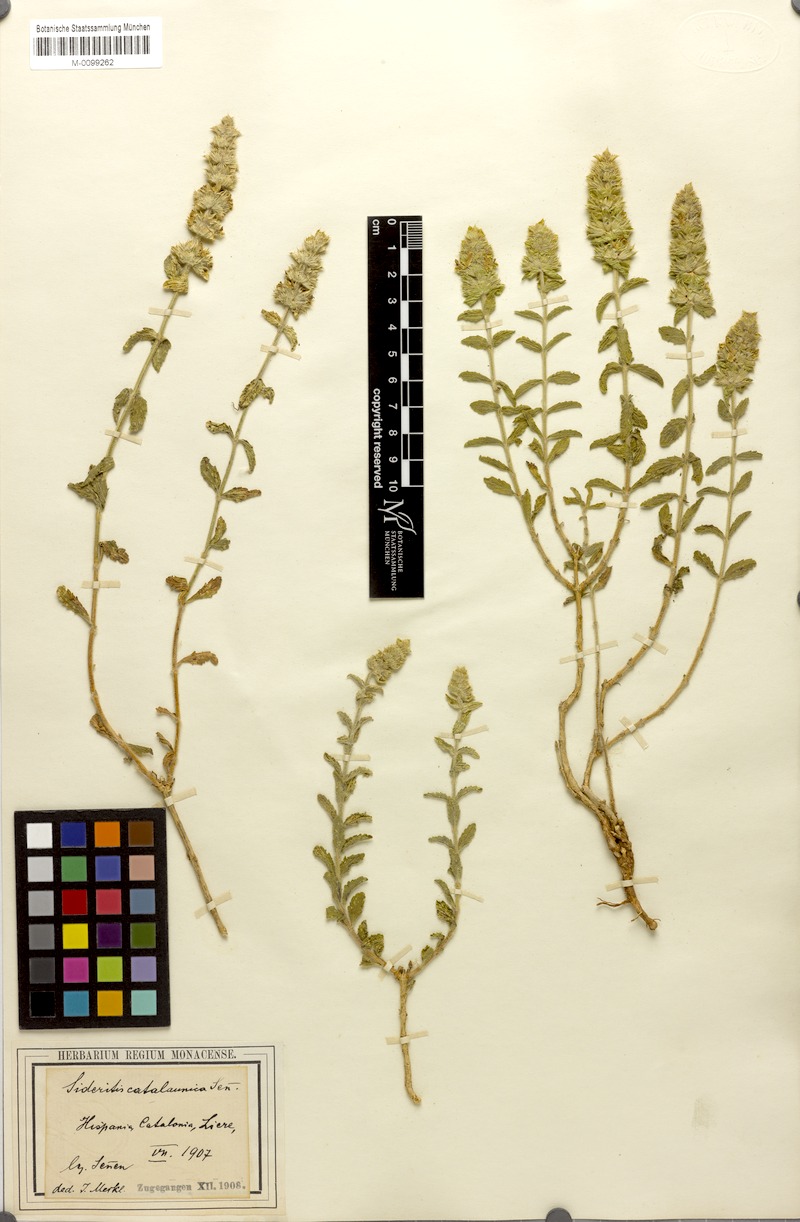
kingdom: Plantae
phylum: Tracheophyta
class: Magnoliopsida
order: Lamiales
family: Lamiaceae
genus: Sideritis
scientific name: Sideritis endressii
